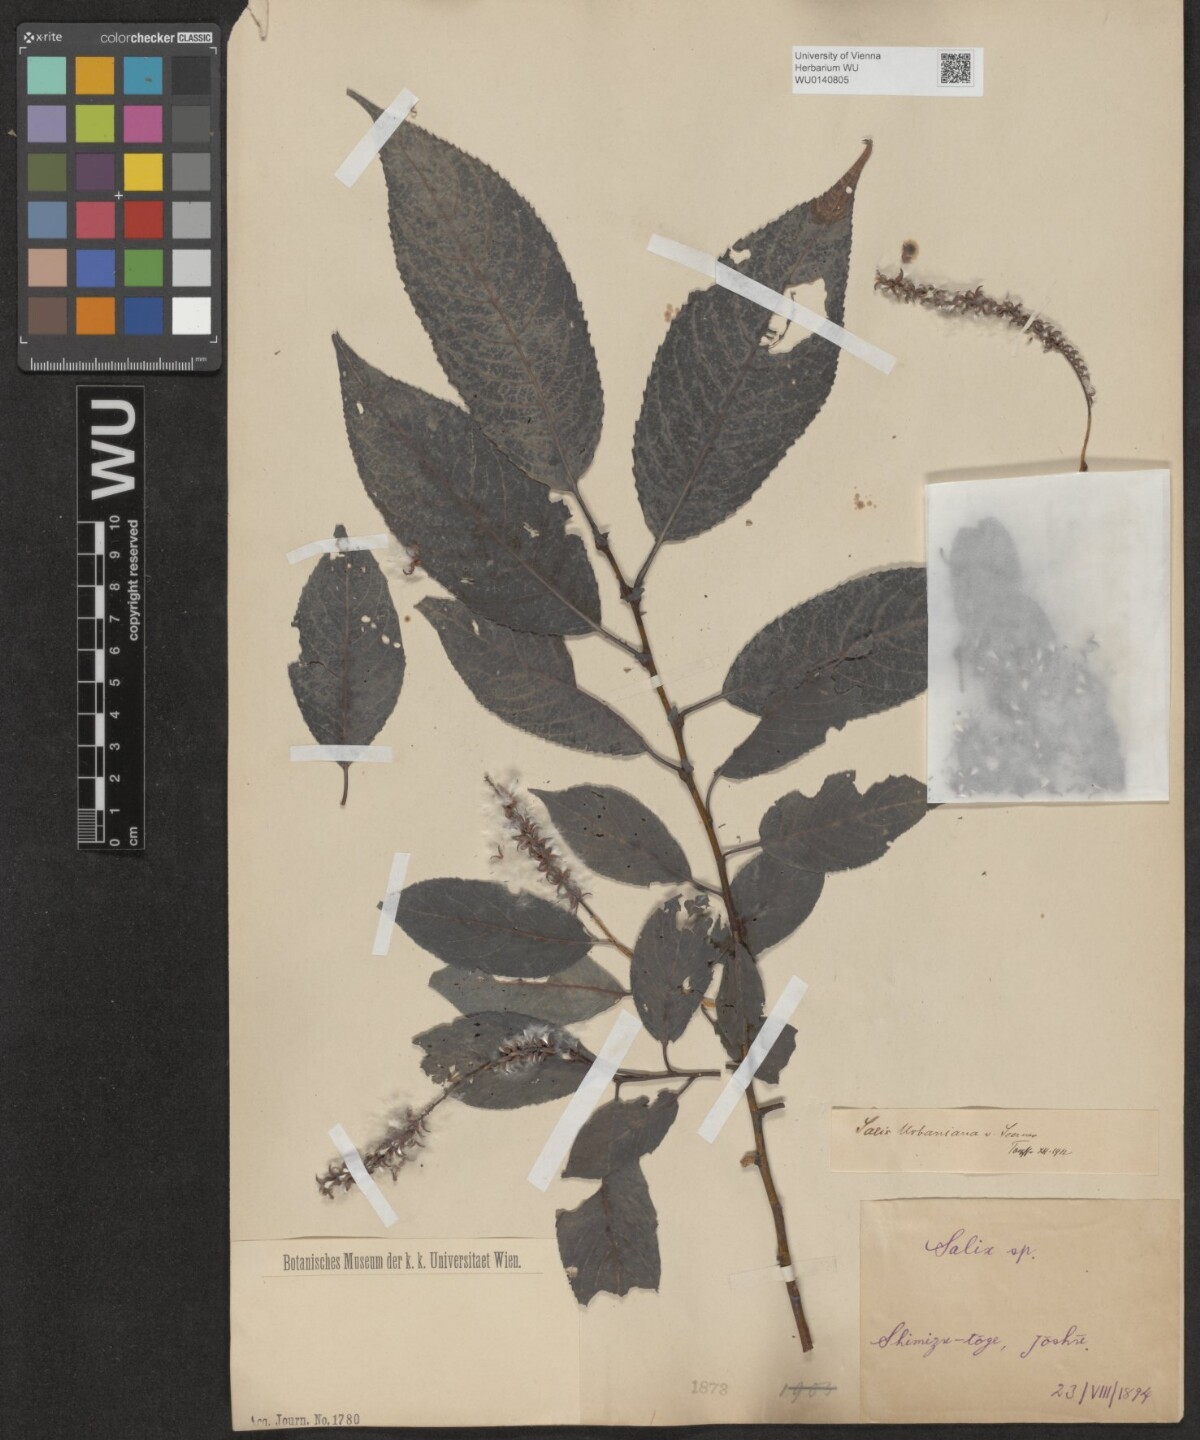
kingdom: Plantae
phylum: Tracheophyta
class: Magnoliopsida
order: Malpighiales
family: Salicaceae
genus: Chosenia
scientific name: Chosenia urbaniana
